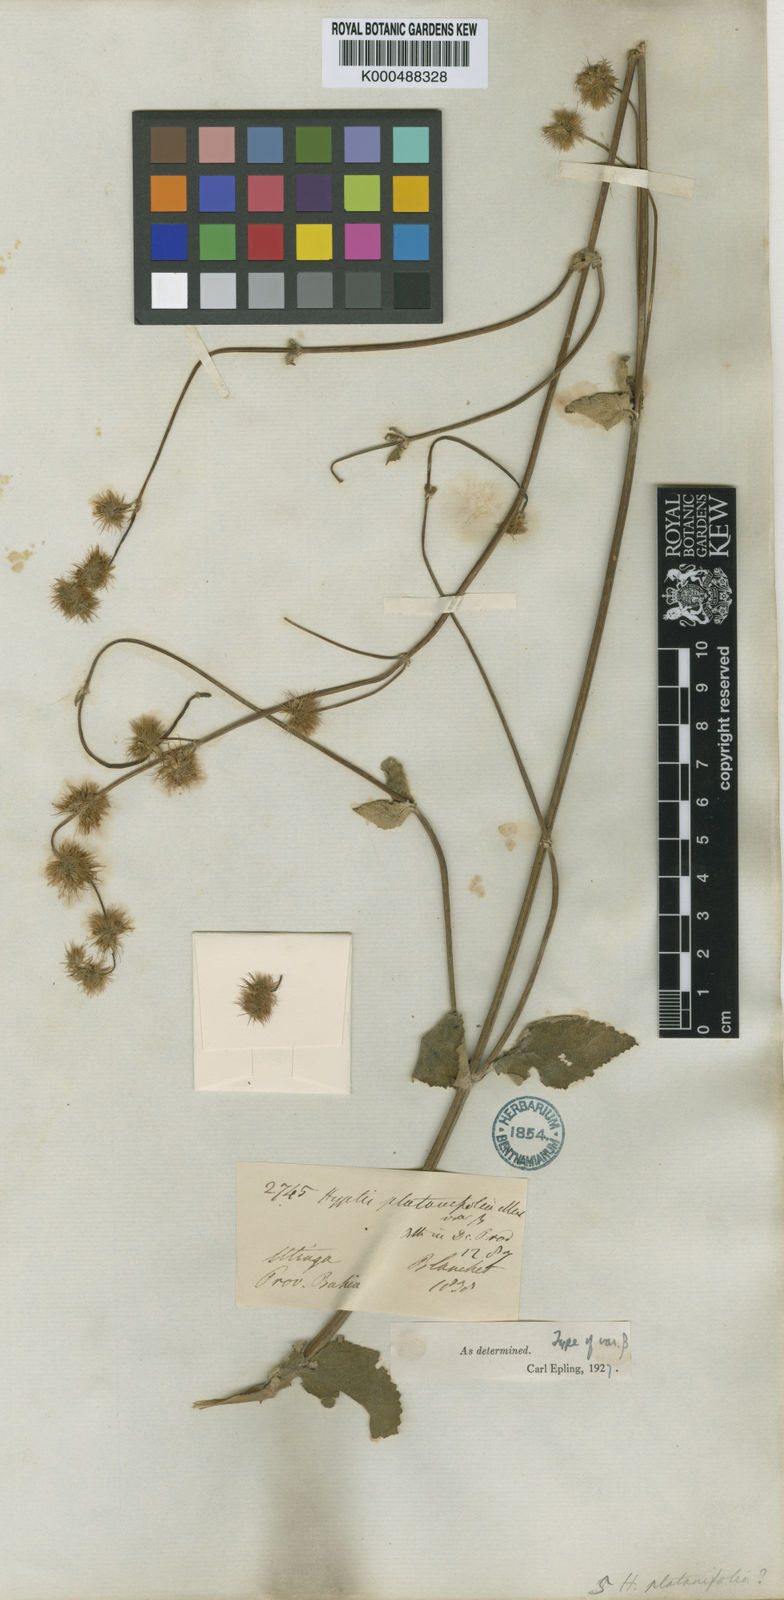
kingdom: Plantae
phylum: Tracheophyta
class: Magnoliopsida
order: Lamiales
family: Lamiaceae
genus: Gymneia
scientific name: Gymneia platanifolia
